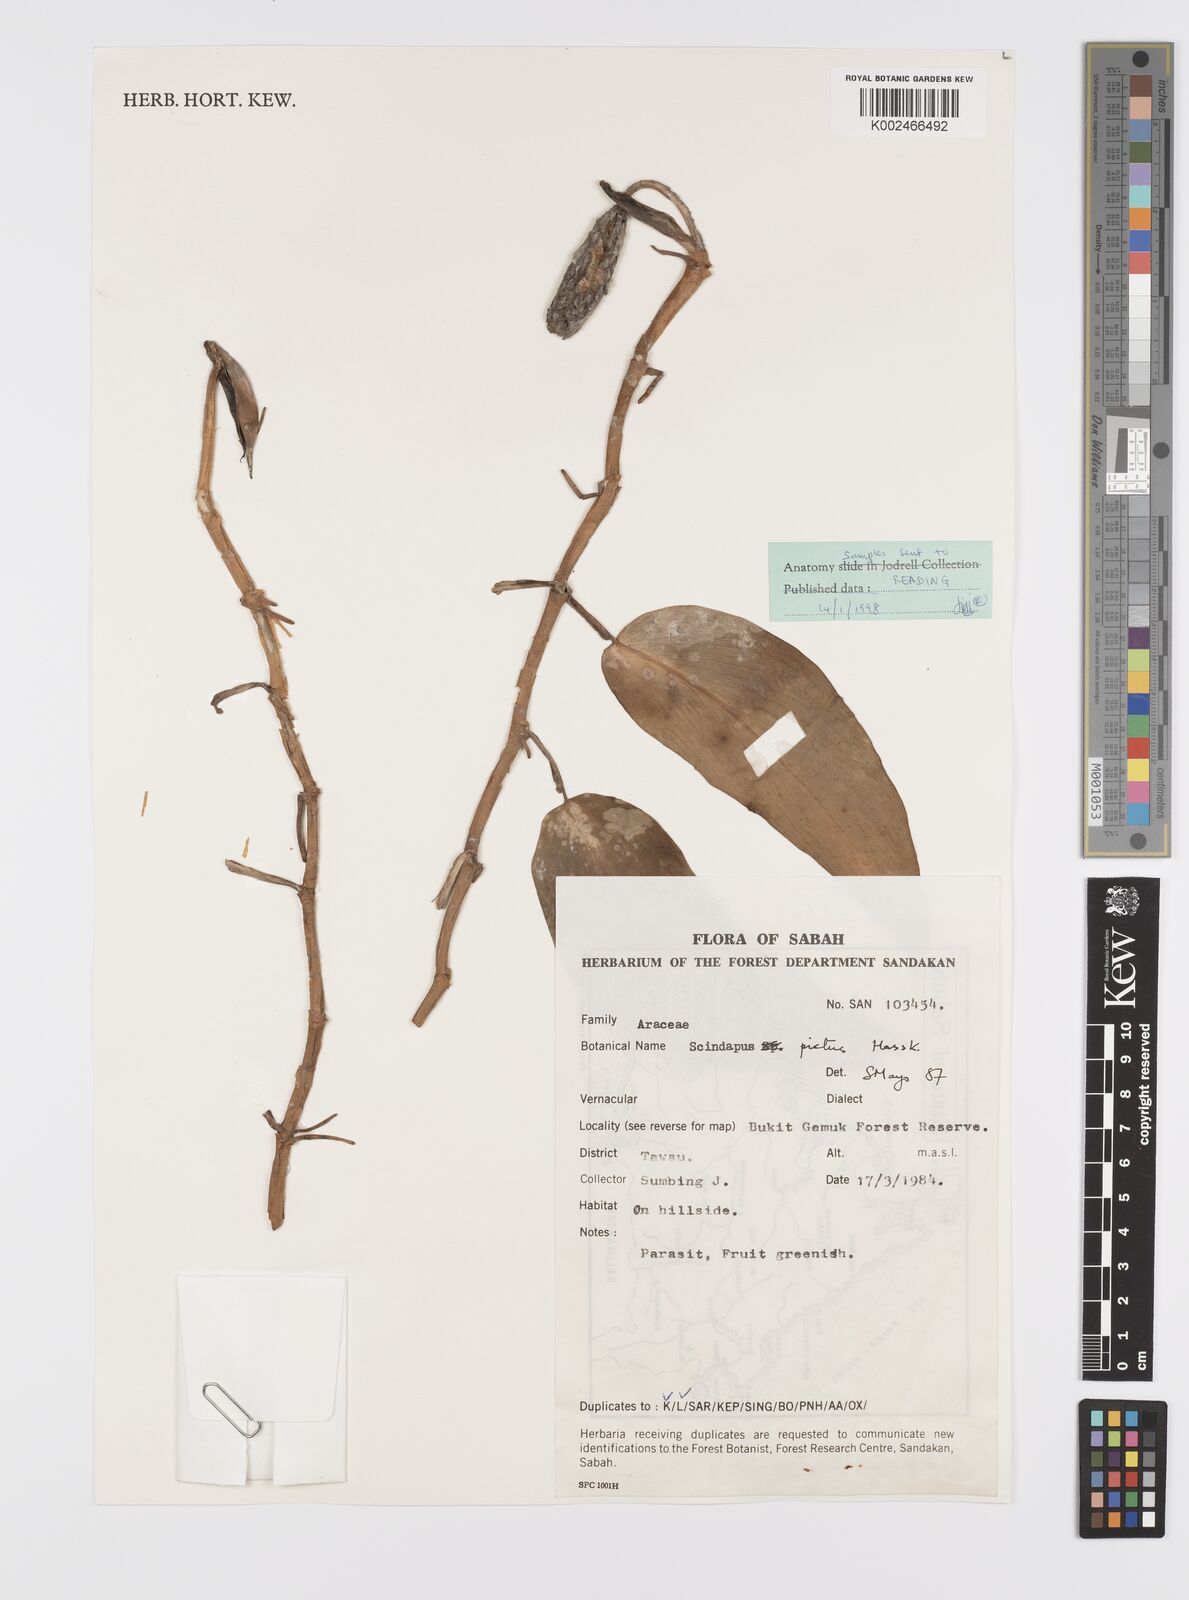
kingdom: Plantae
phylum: Tracheophyta
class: Liliopsida
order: Alismatales
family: Araceae
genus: Scindapsus
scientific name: Scindapsus pictus
